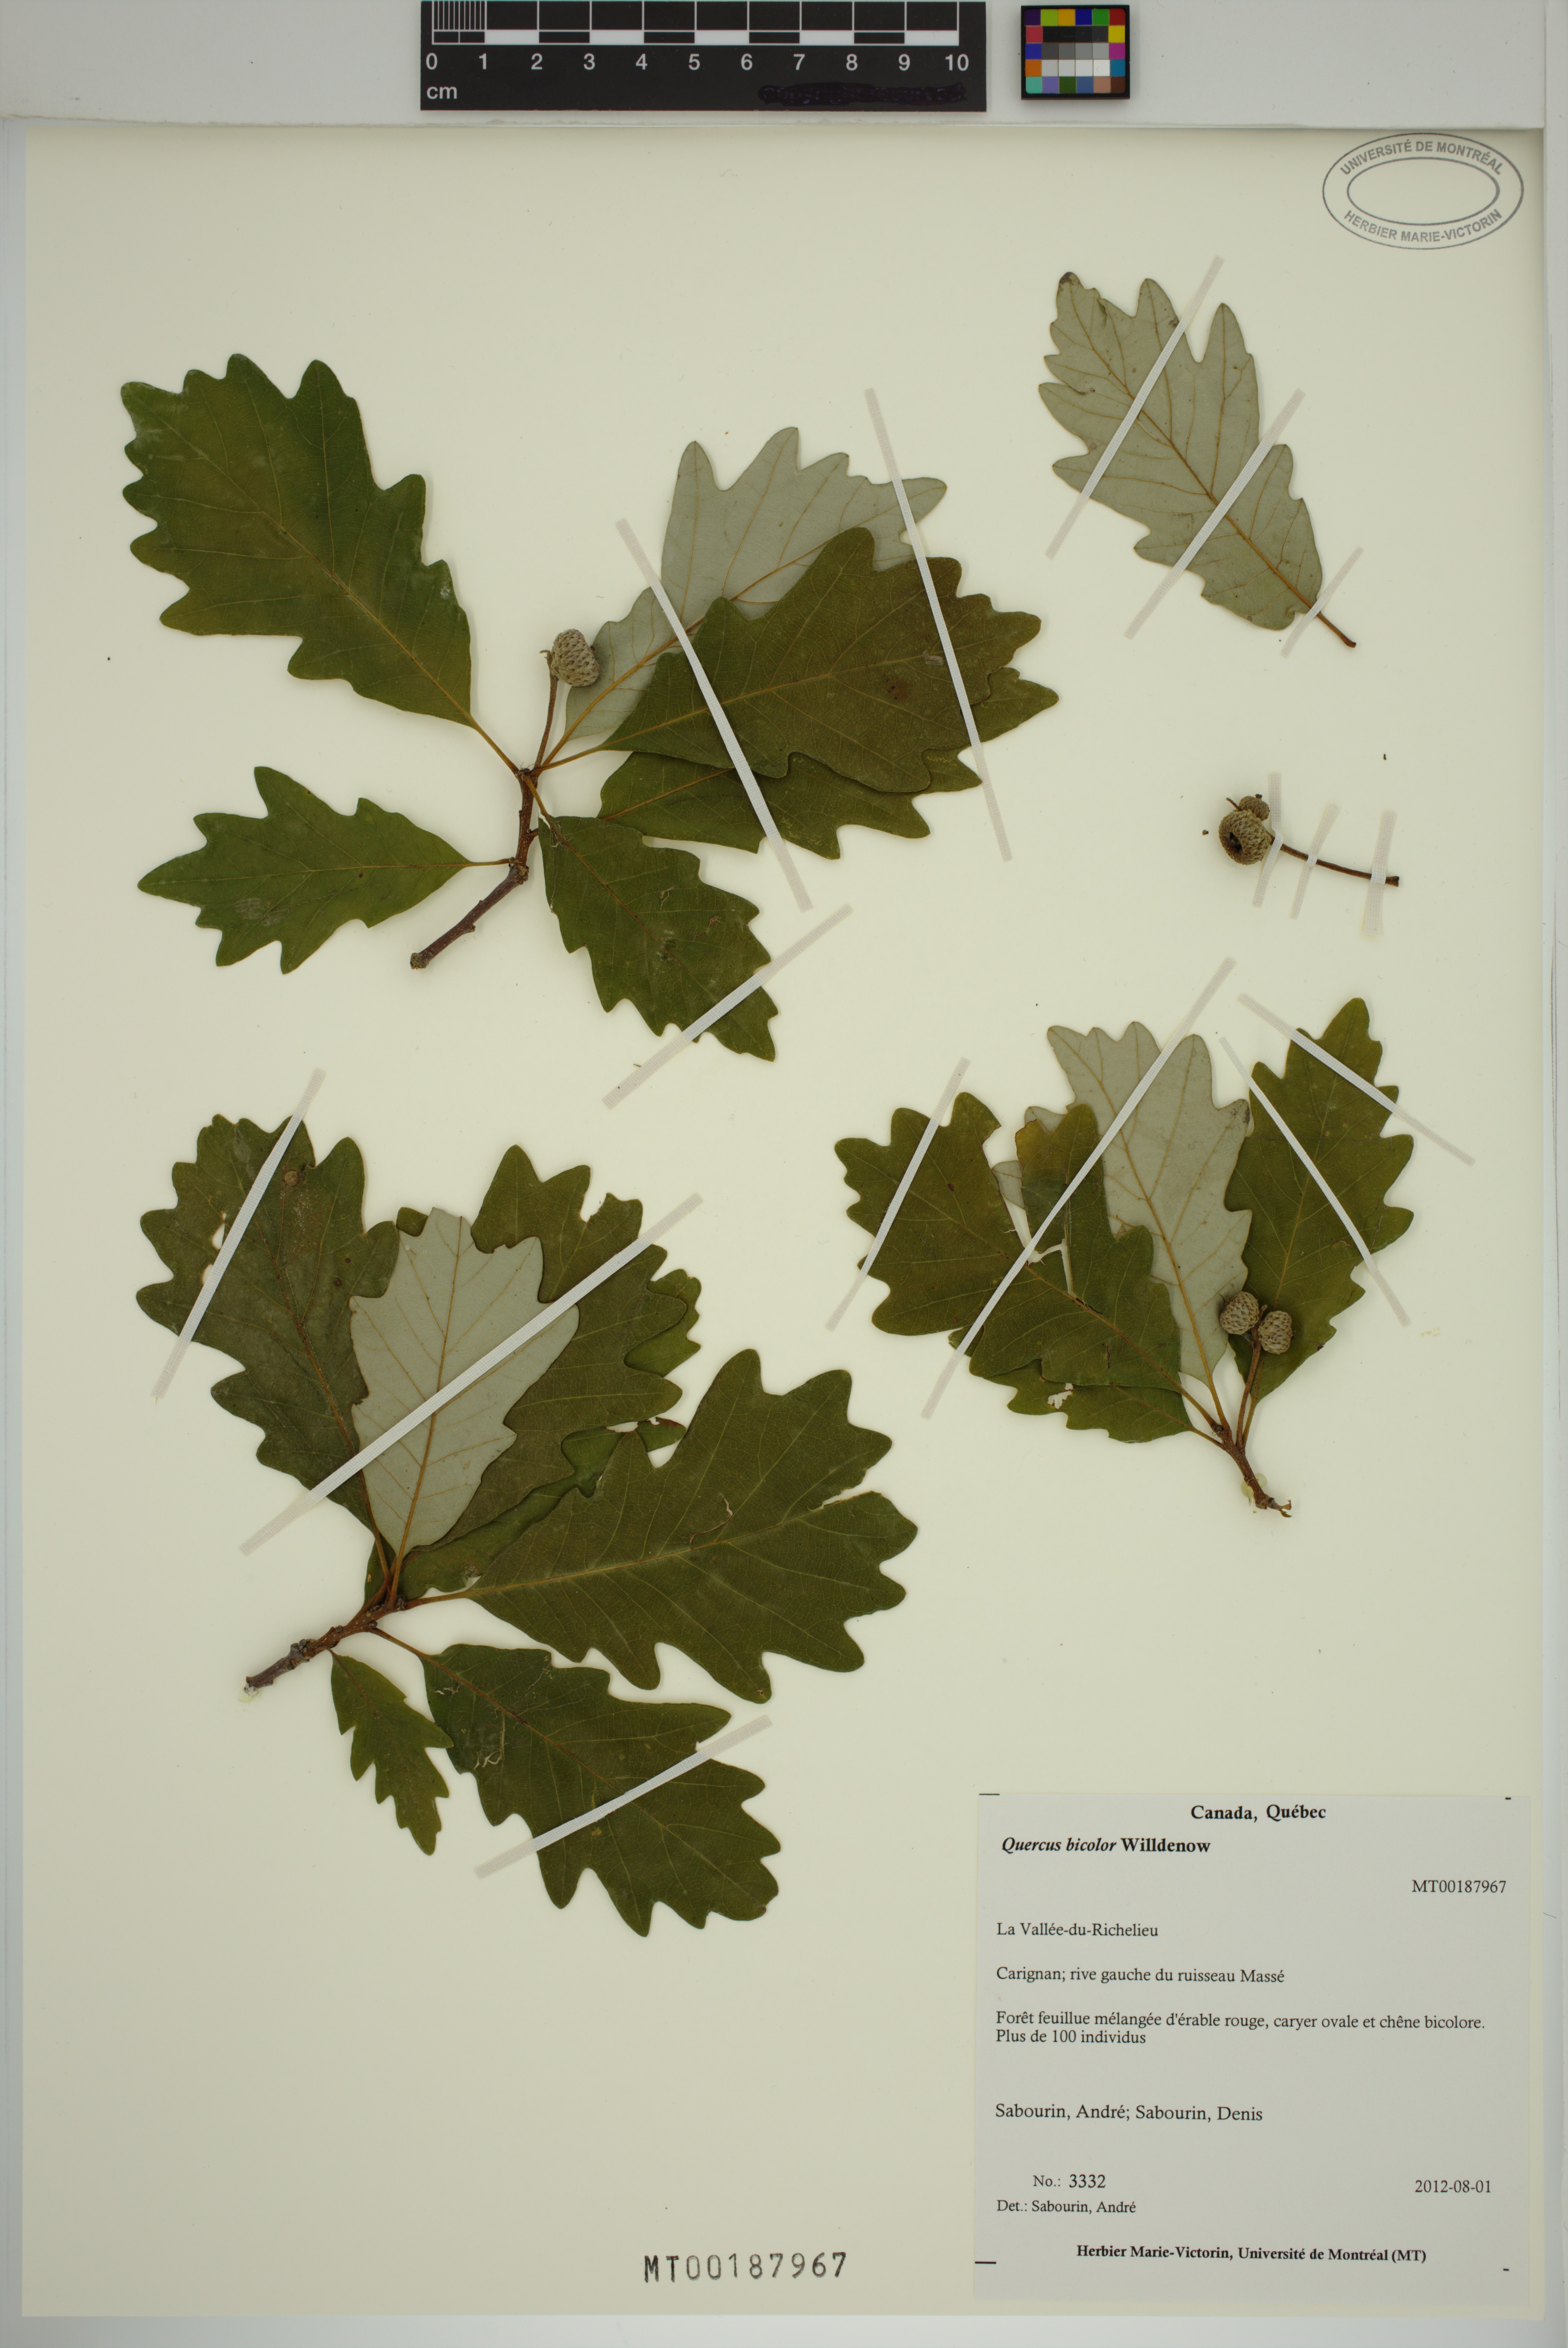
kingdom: Plantae
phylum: Tracheophyta
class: Magnoliopsida
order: Fagales
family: Fagaceae
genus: Quercus
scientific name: Quercus bicolor
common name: Swamp white oak
